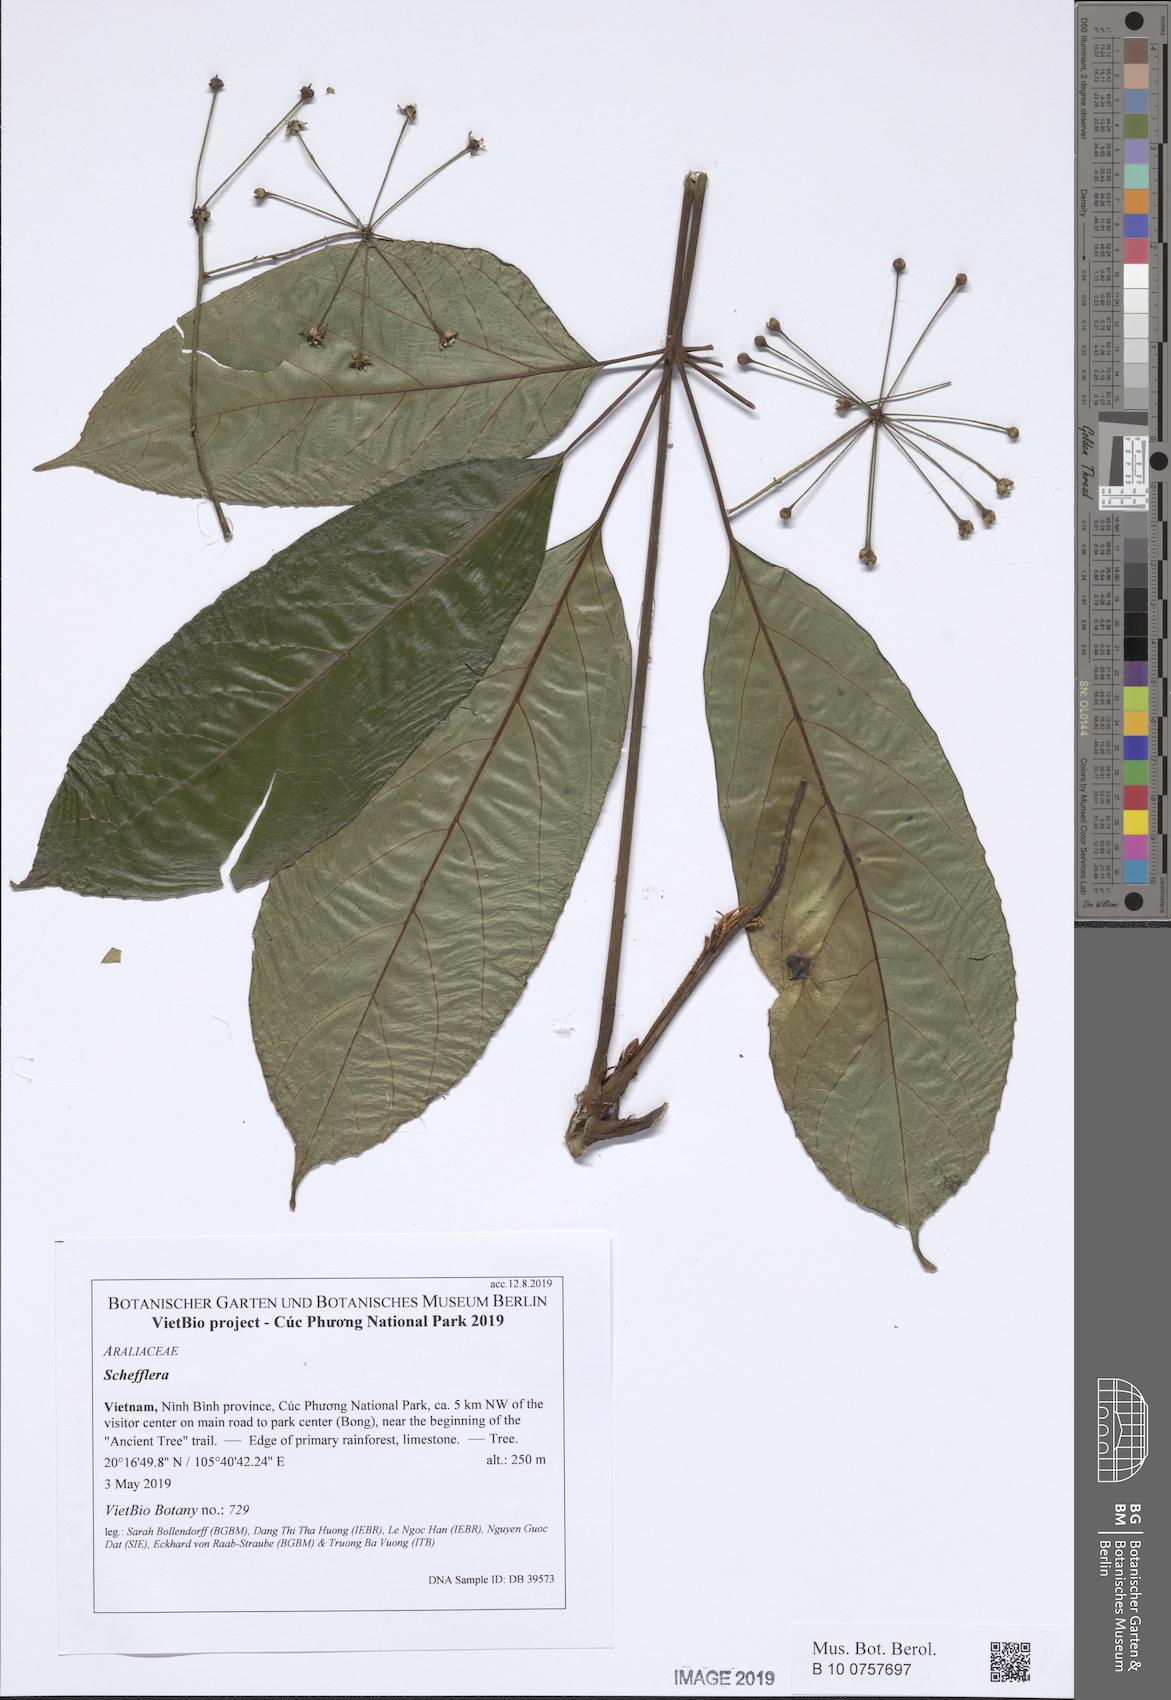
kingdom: Plantae
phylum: Tracheophyta
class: Magnoliopsida
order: Apiales
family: Araliaceae
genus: Schefflera
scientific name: Schefflera
